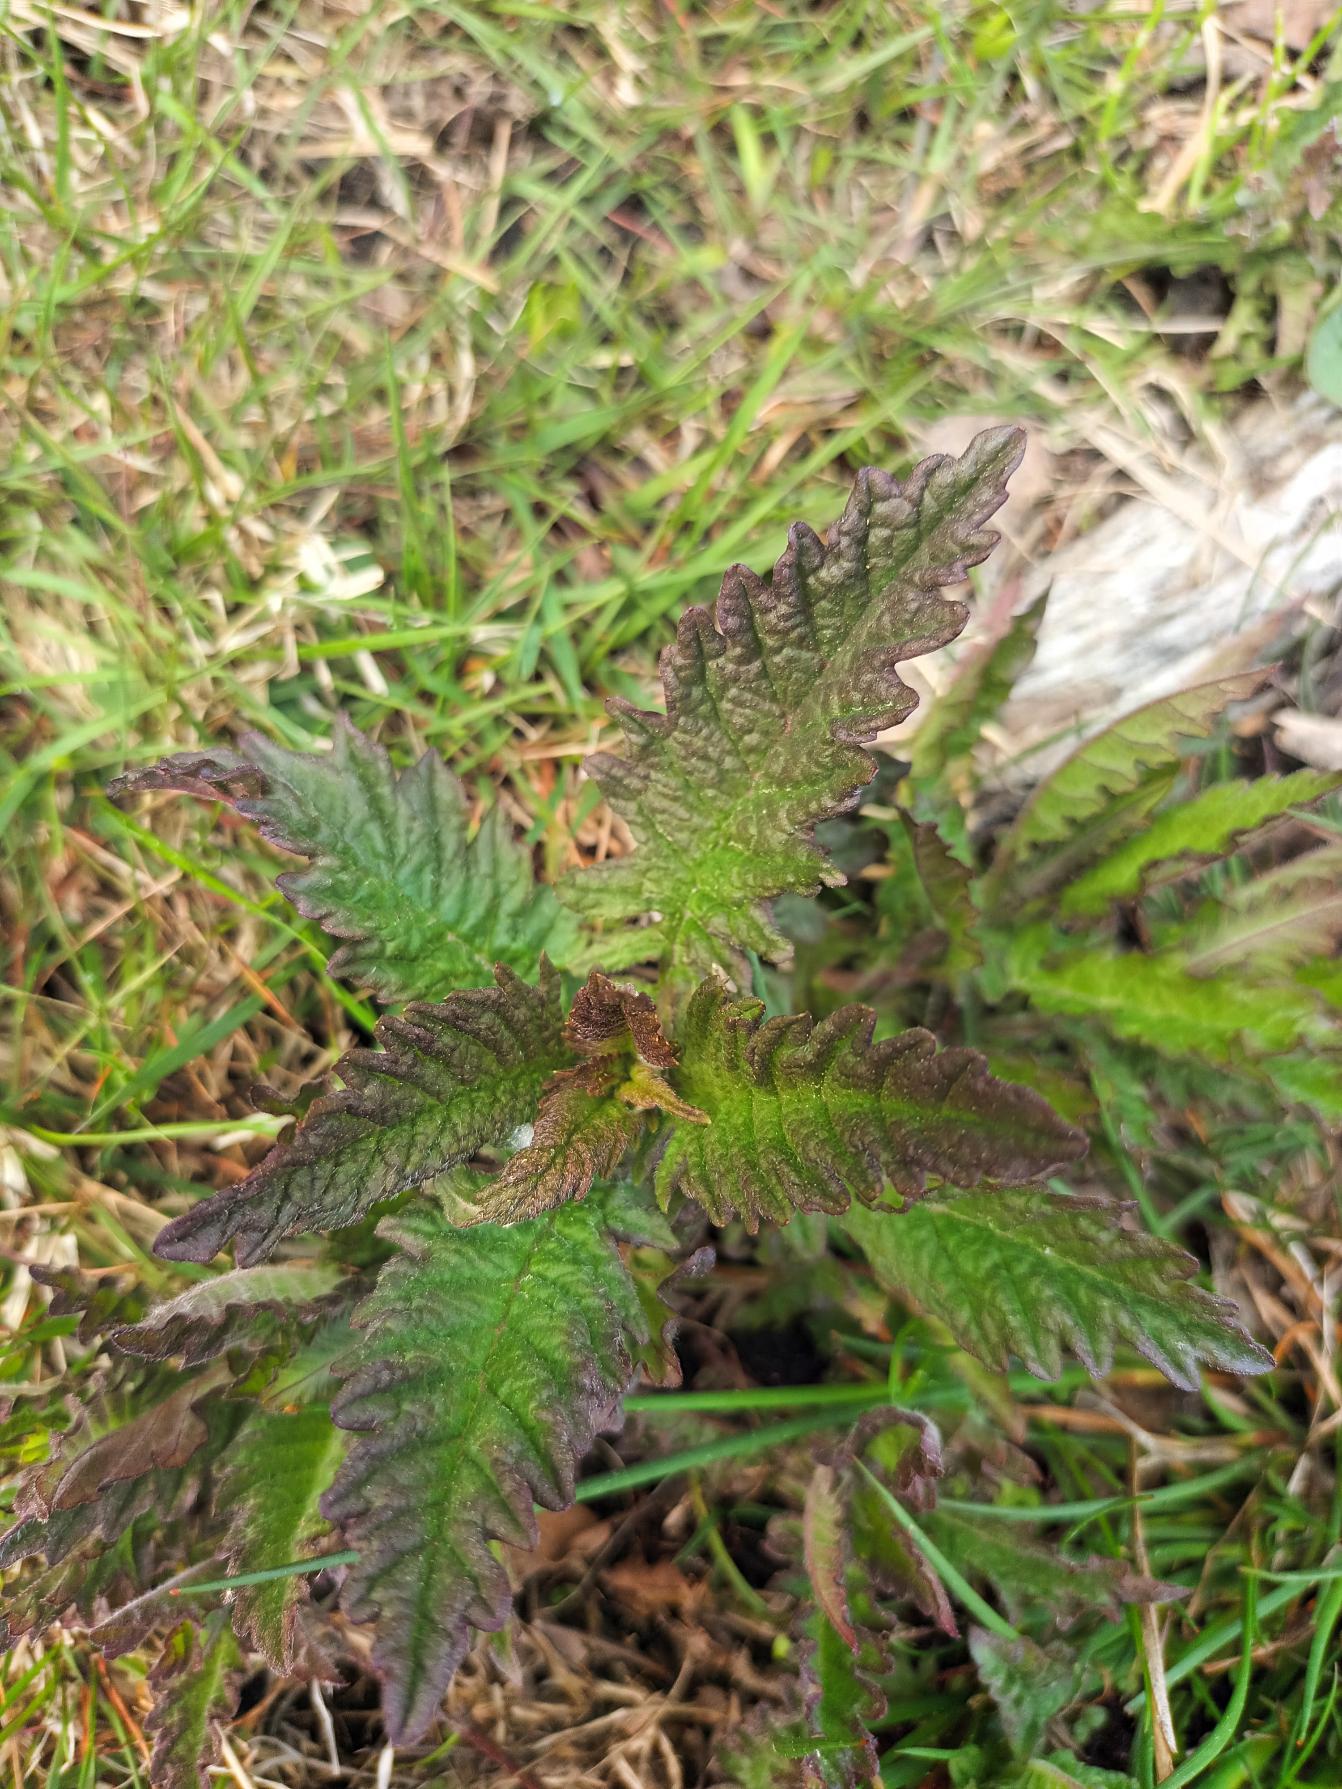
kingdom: Plantae
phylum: Tracheophyta
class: Magnoliopsida
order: Lamiales
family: Lamiaceae
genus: Lycopus
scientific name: Lycopus europaeus
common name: Sværtevæld
